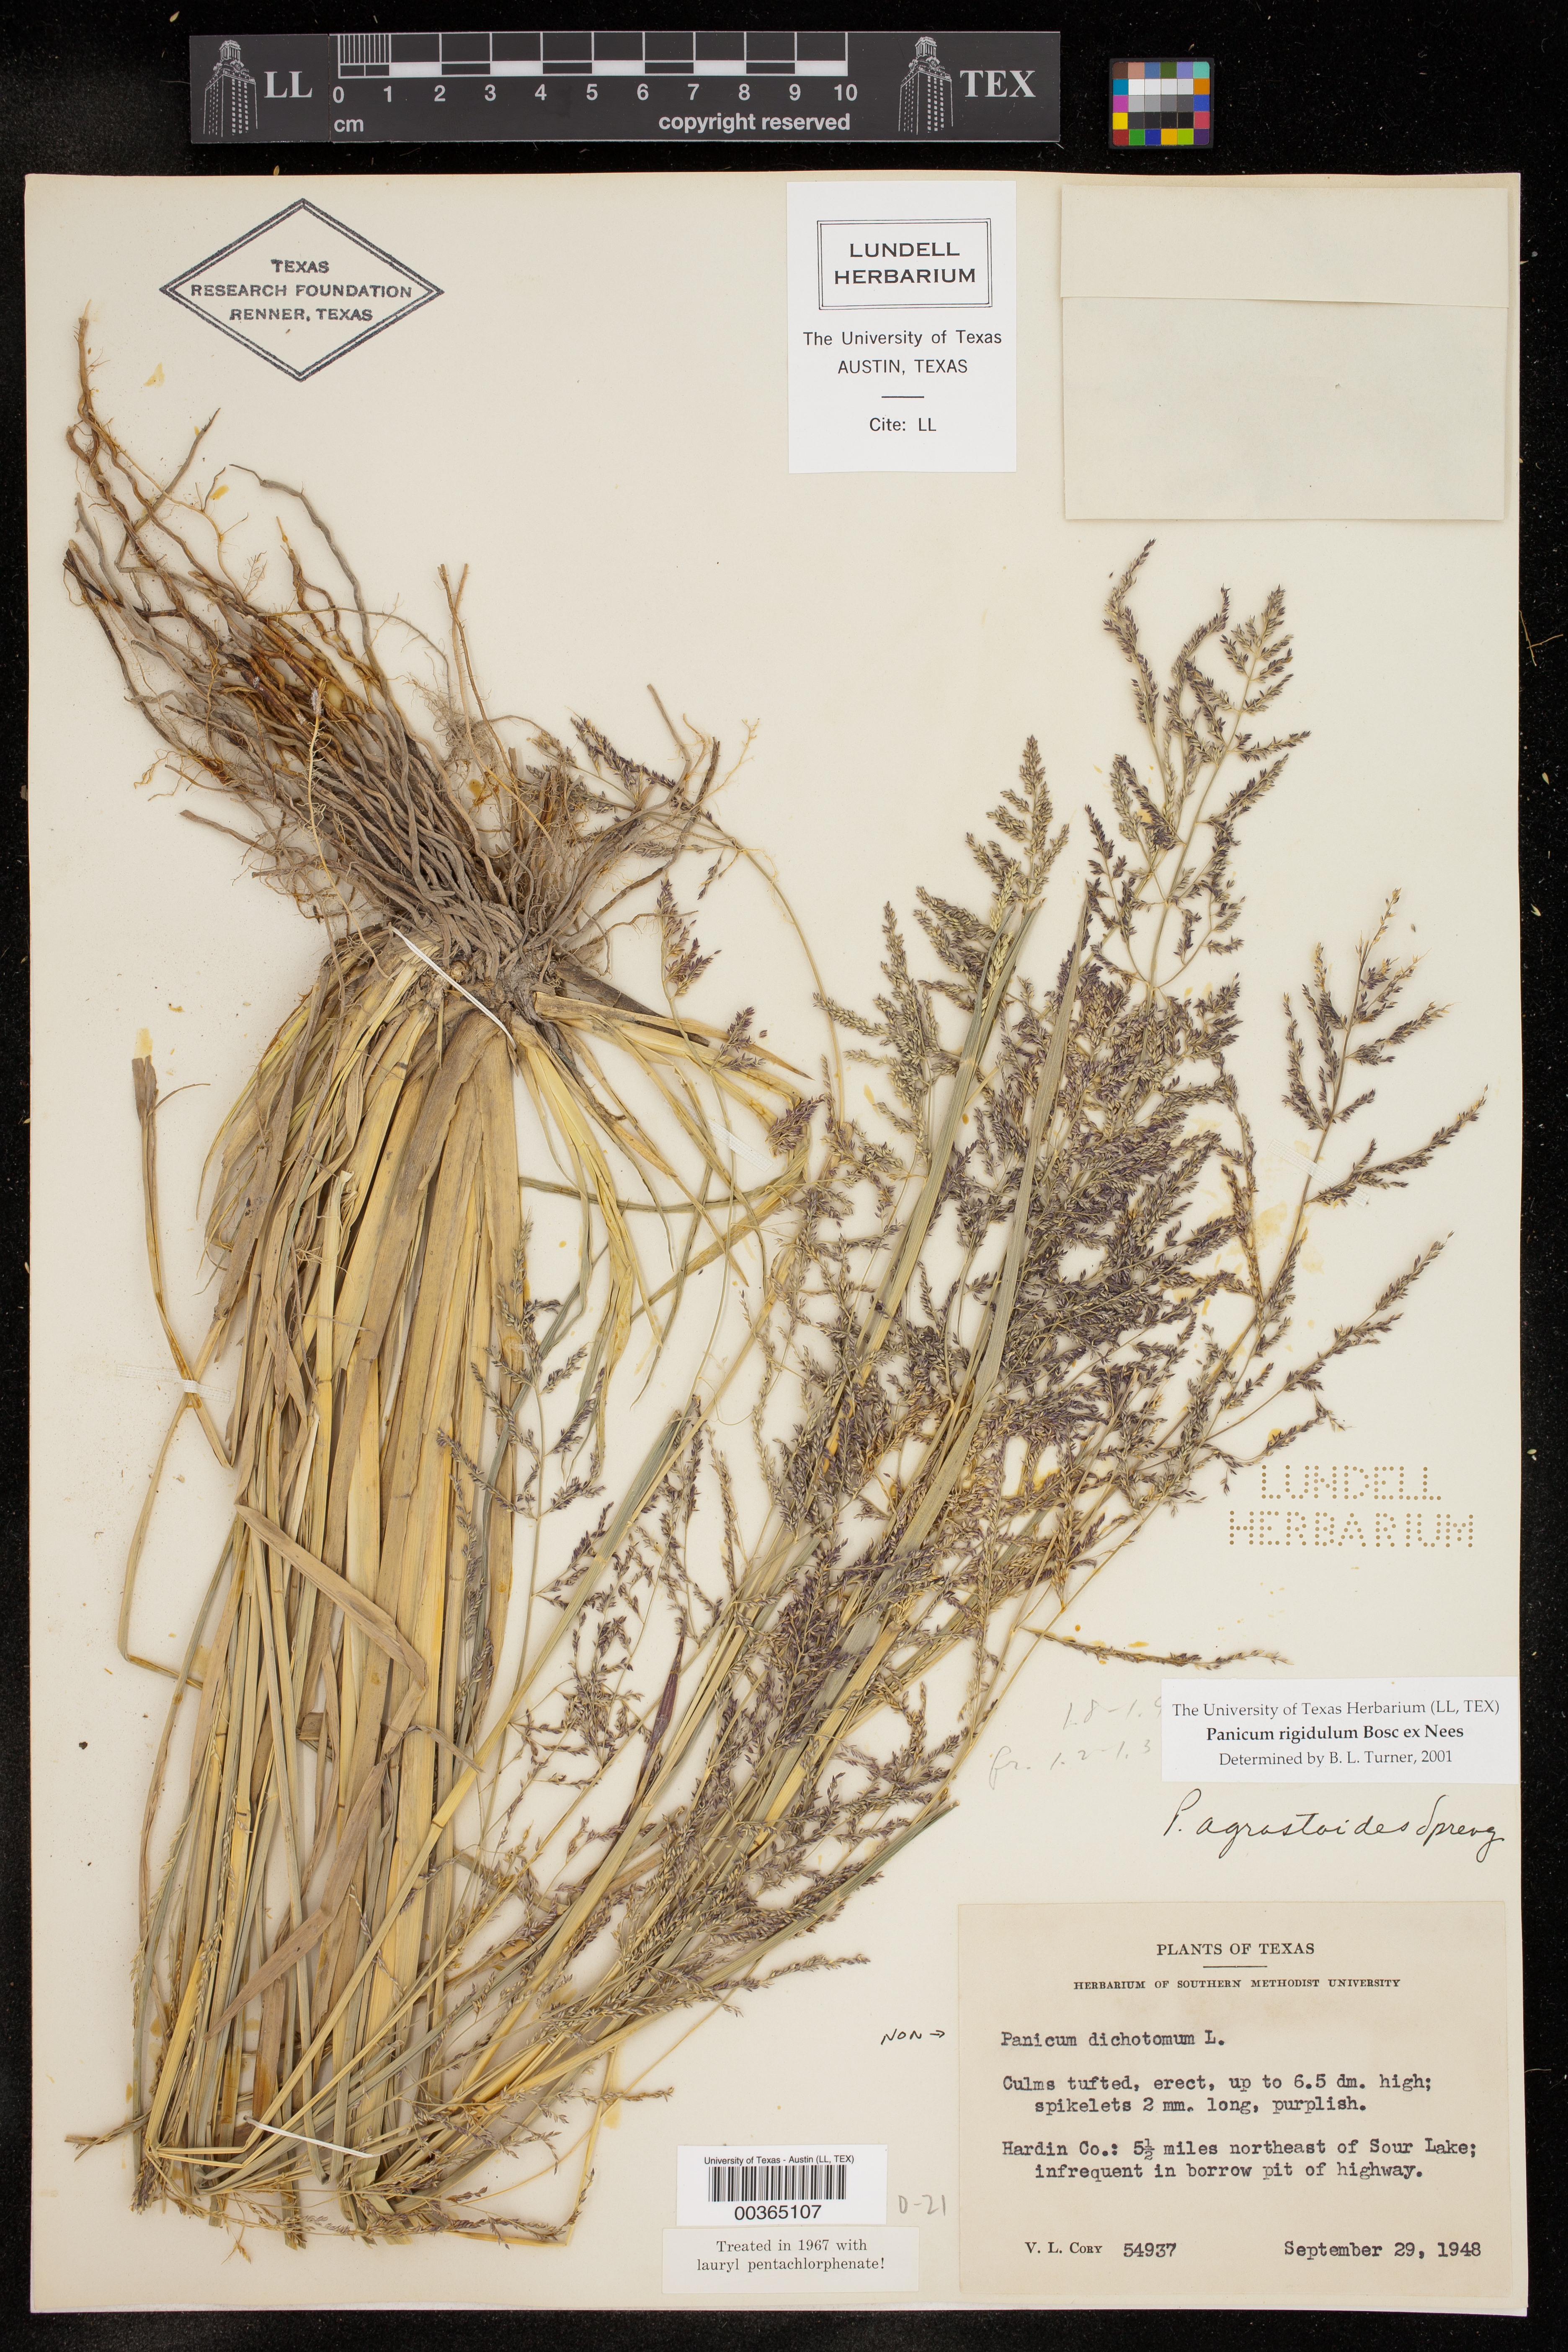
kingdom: Plantae
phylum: Tracheophyta
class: Liliopsida
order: Poales
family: Poaceae
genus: Coleataenia
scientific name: Coleataenia rigidula
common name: Redtop panicgrass
